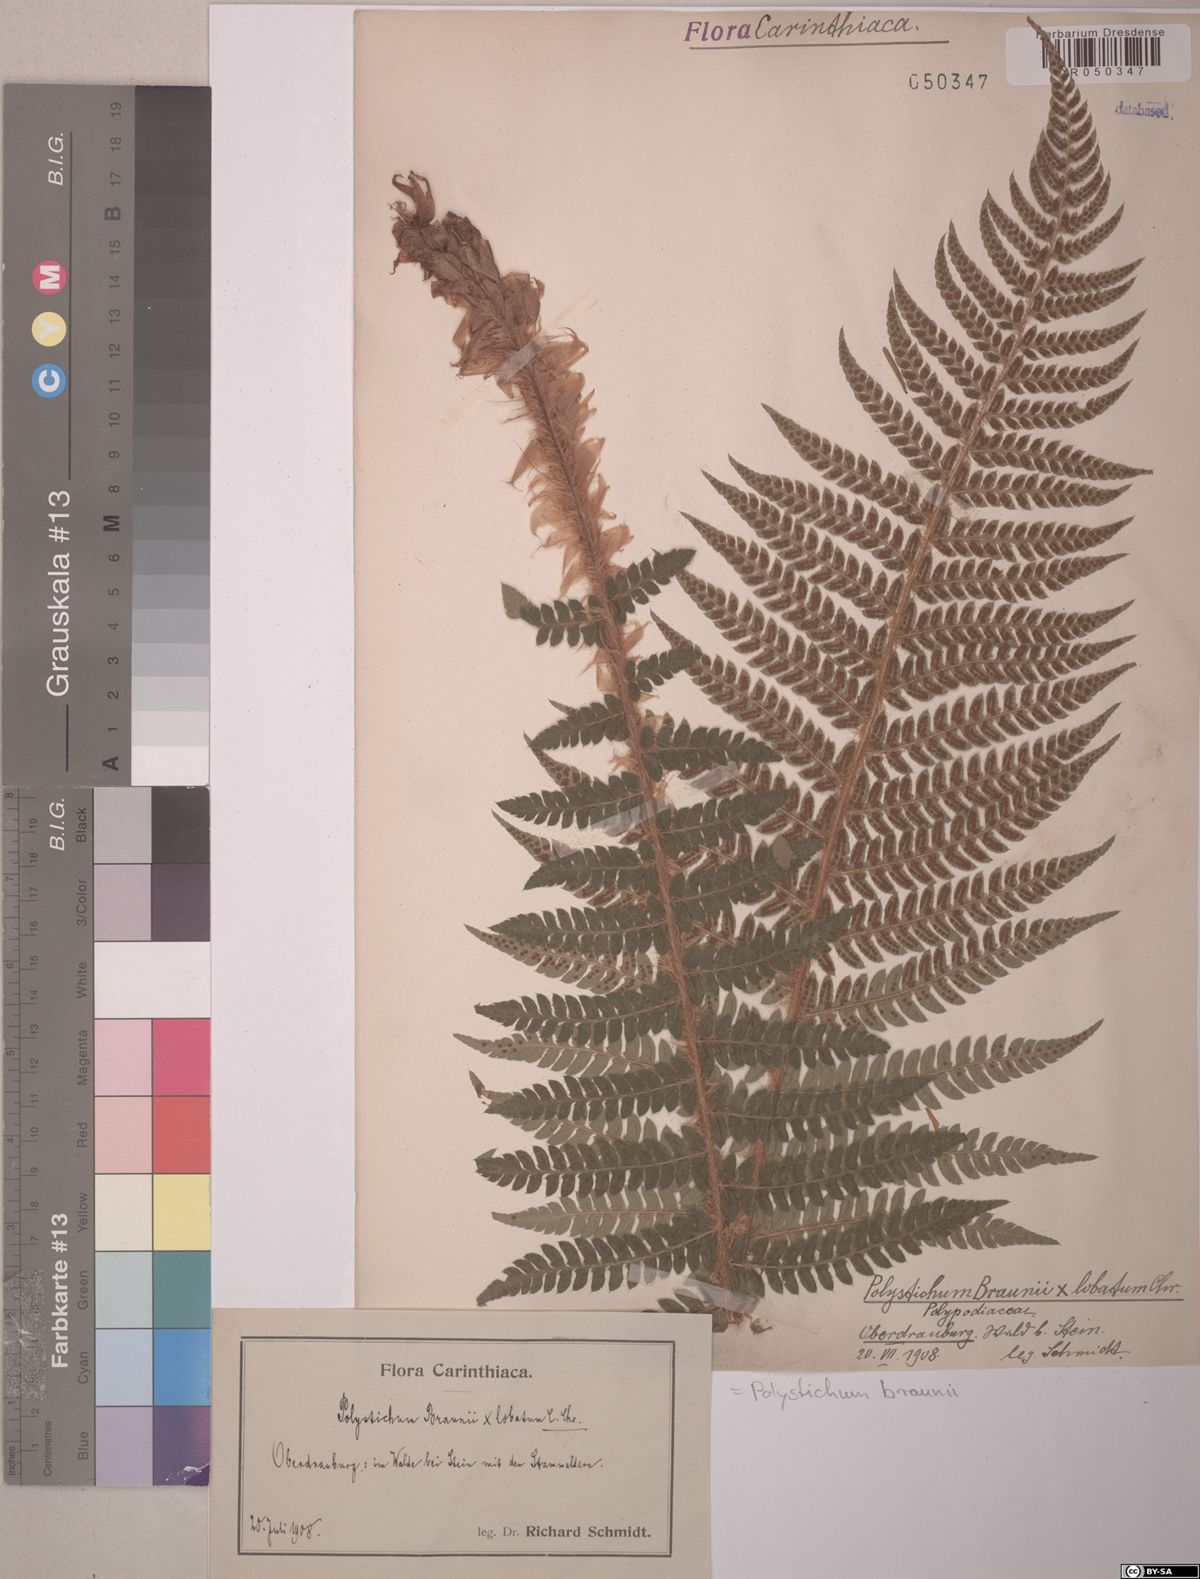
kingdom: Plantae
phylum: Tracheophyta
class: Polypodiopsida
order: Polypodiales
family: Dryopteridaceae
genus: Polystichum
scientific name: Polystichum braunii
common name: Braun's holly fern
